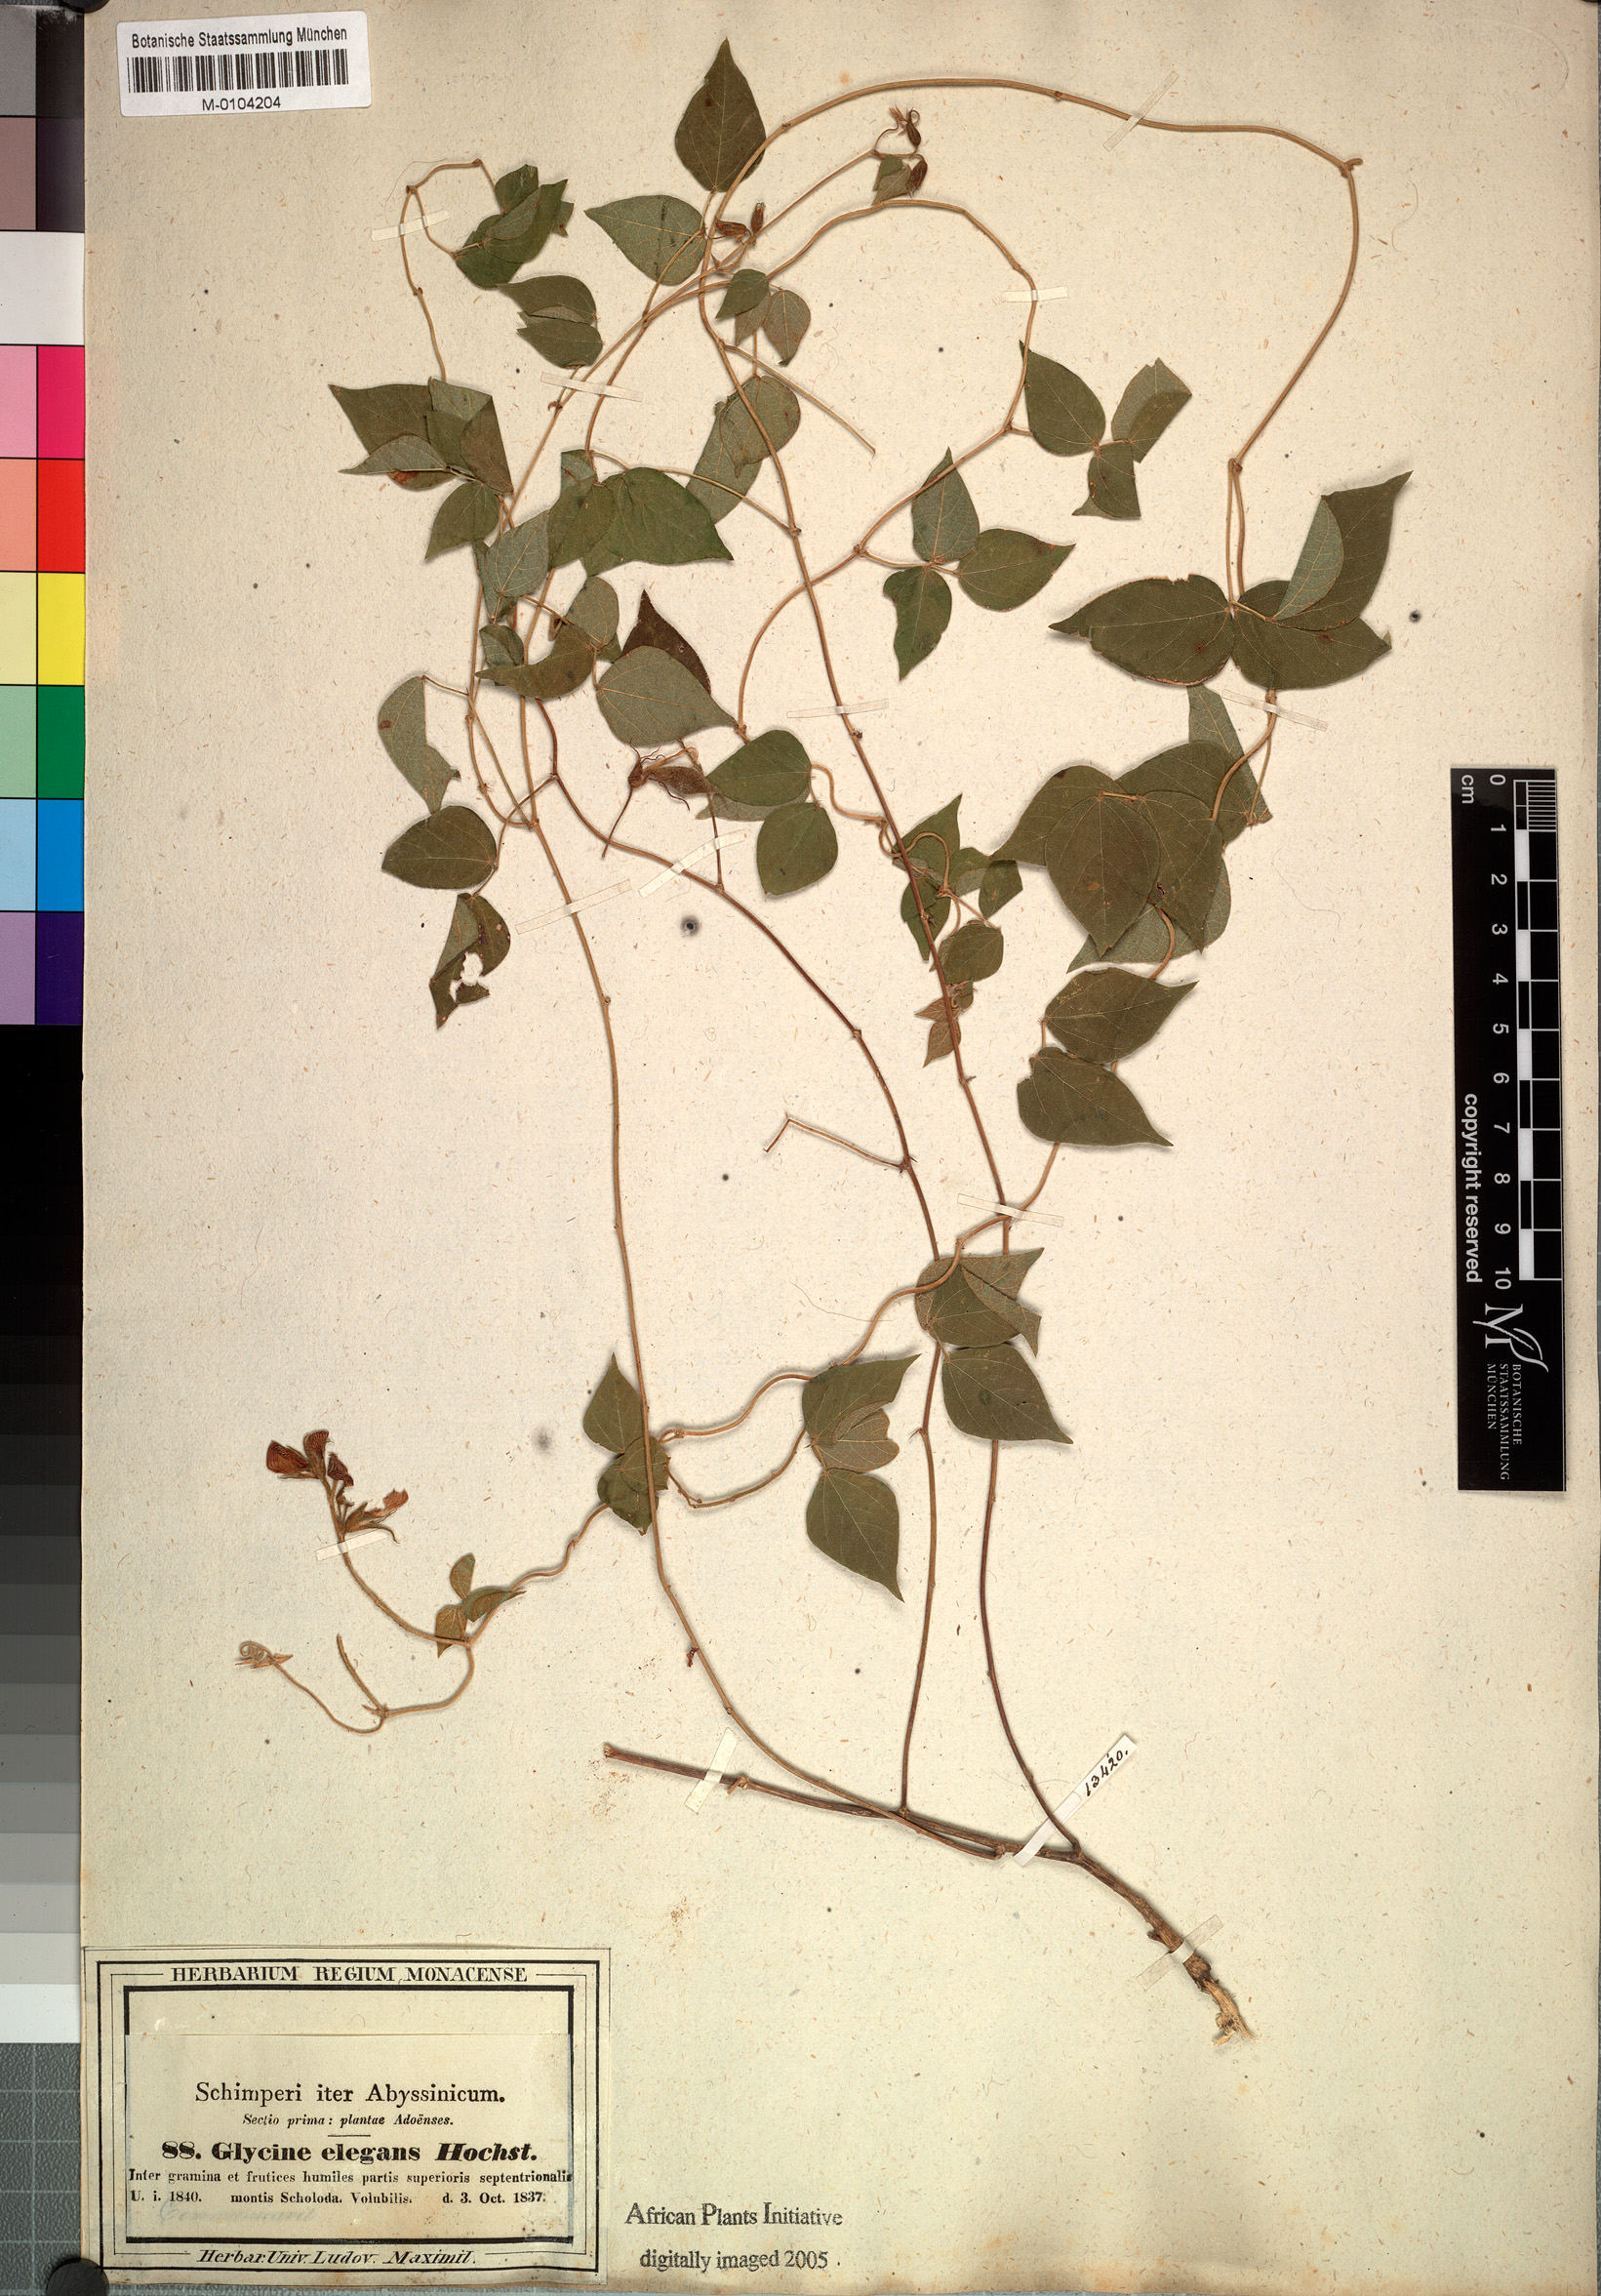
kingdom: Plantae
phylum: Tracheophyta
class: Magnoliopsida
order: Fabales
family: Fabaceae
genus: Rhynchosia
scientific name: Rhynchosia elegans
